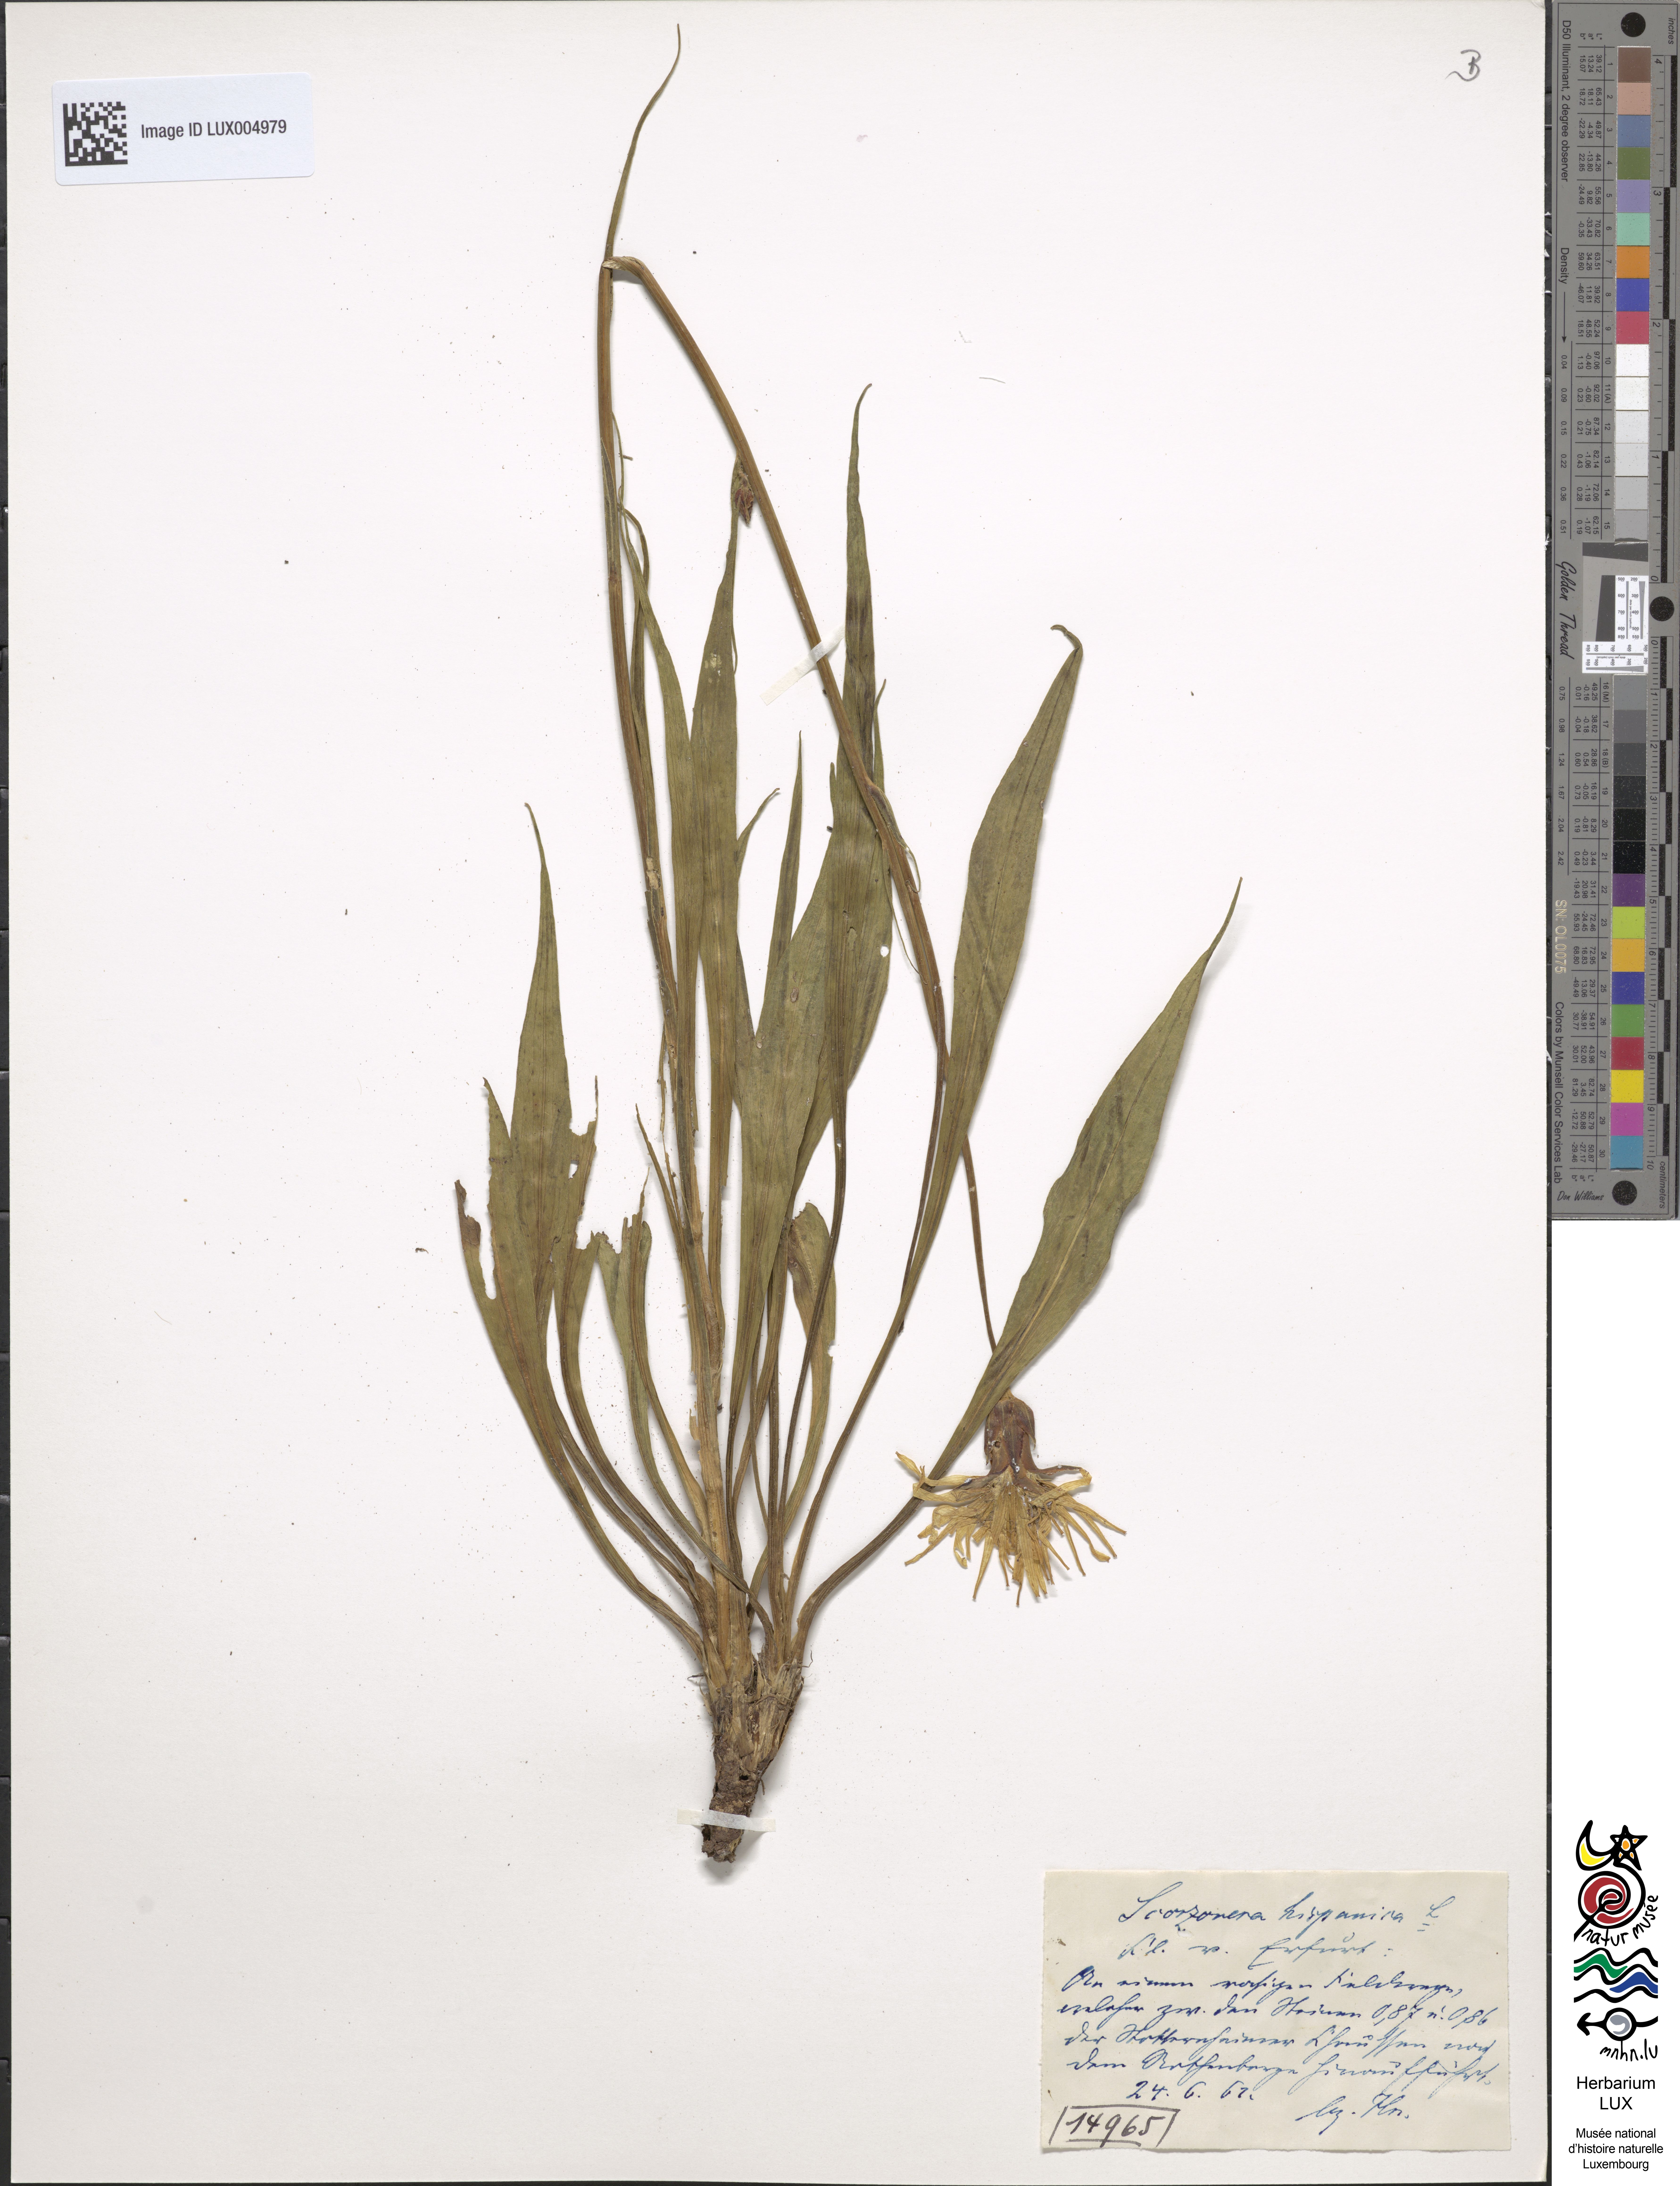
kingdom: Plantae
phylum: Tracheophyta
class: Magnoliopsida
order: Asterales
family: Asteraceae
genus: Pseudopodospermum
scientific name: Pseudopodospermum hispanicum
